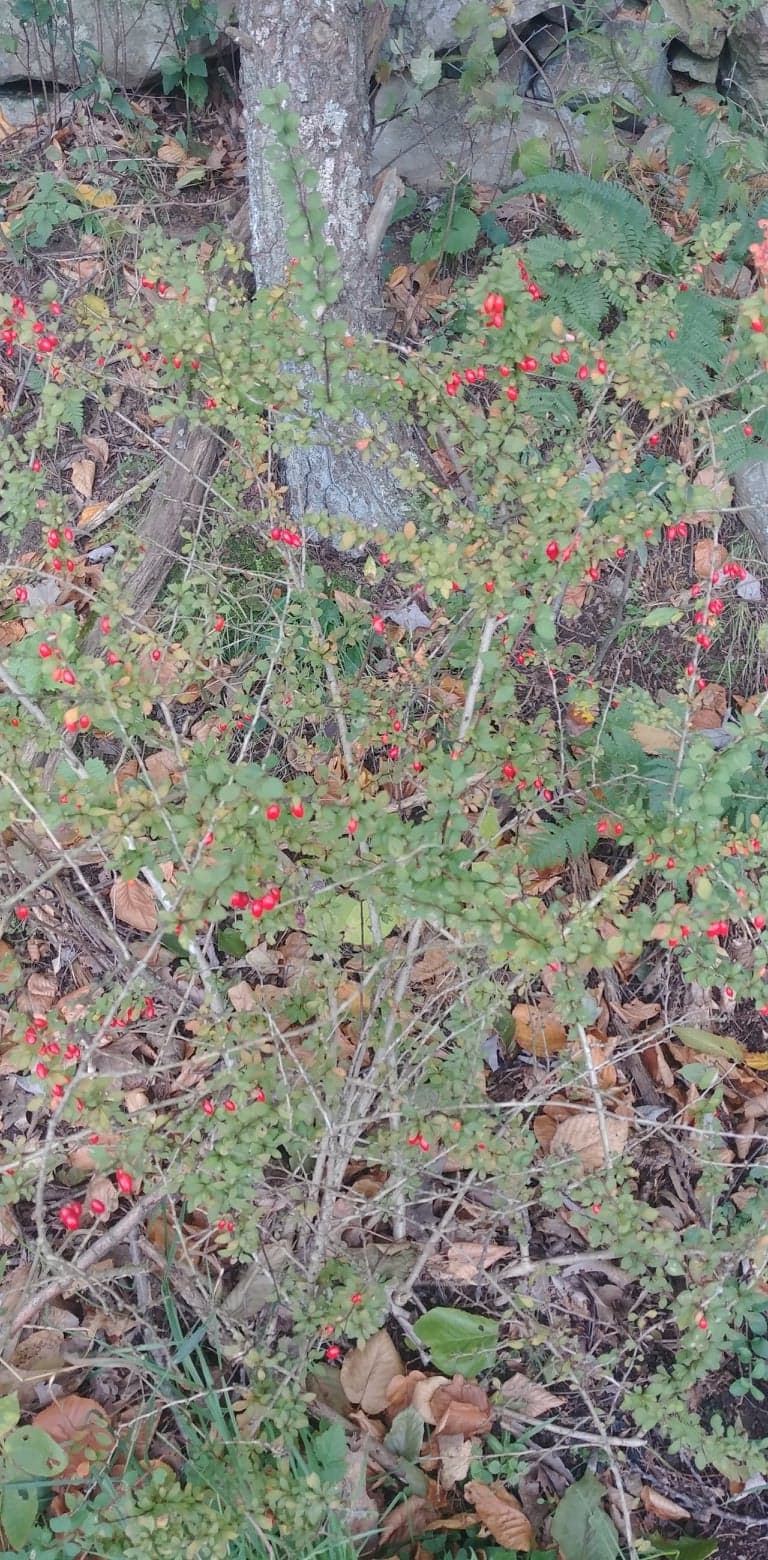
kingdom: Plantae
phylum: Tracheophyta
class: Magnoliopsida
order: Ranunculales
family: Berberidaceae
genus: Berberis
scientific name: Berberis thunbergii
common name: barberry
